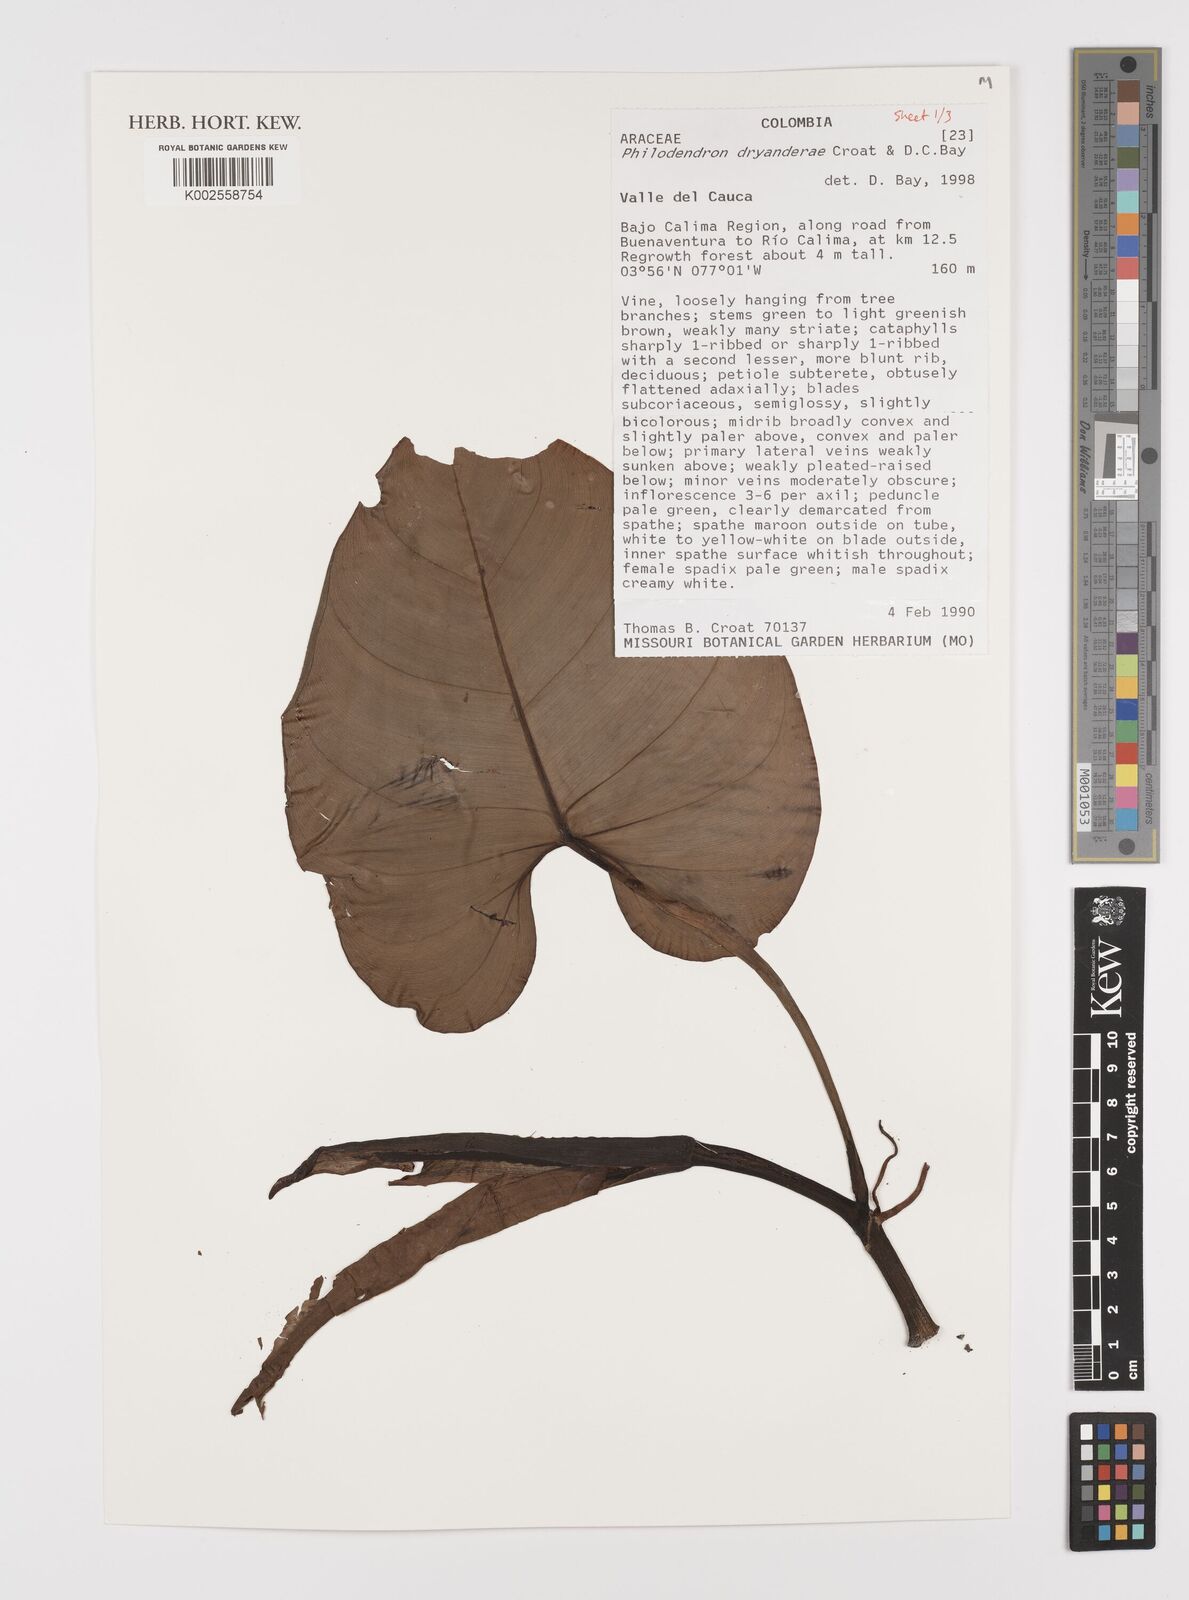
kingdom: Plantae
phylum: Tracheophyta
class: Liliopsida
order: Alismatales
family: Araceae
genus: Philodendron
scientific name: Philodendron dryanderae
